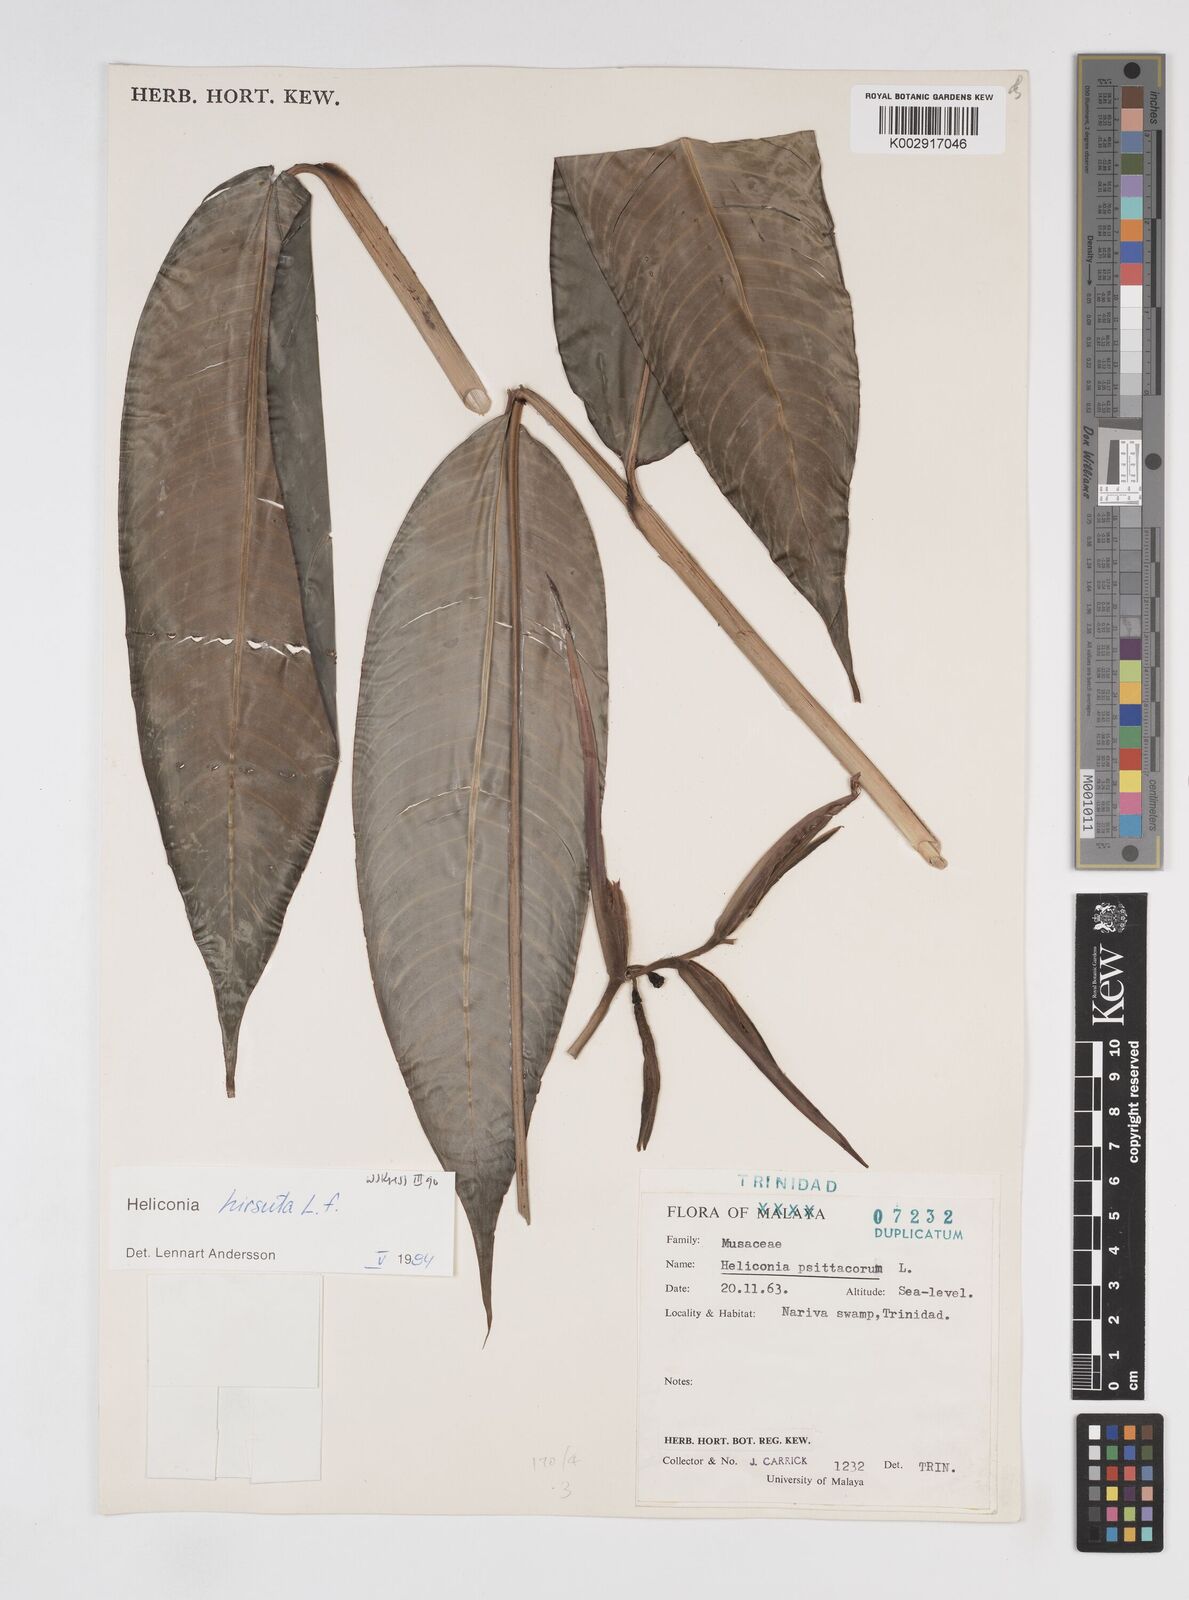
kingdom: Plantae
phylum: Tracheophyta
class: Liliopsida
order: Zingiberales
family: Heliconiaceae
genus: Heliconia
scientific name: Heliconia hirsuta
